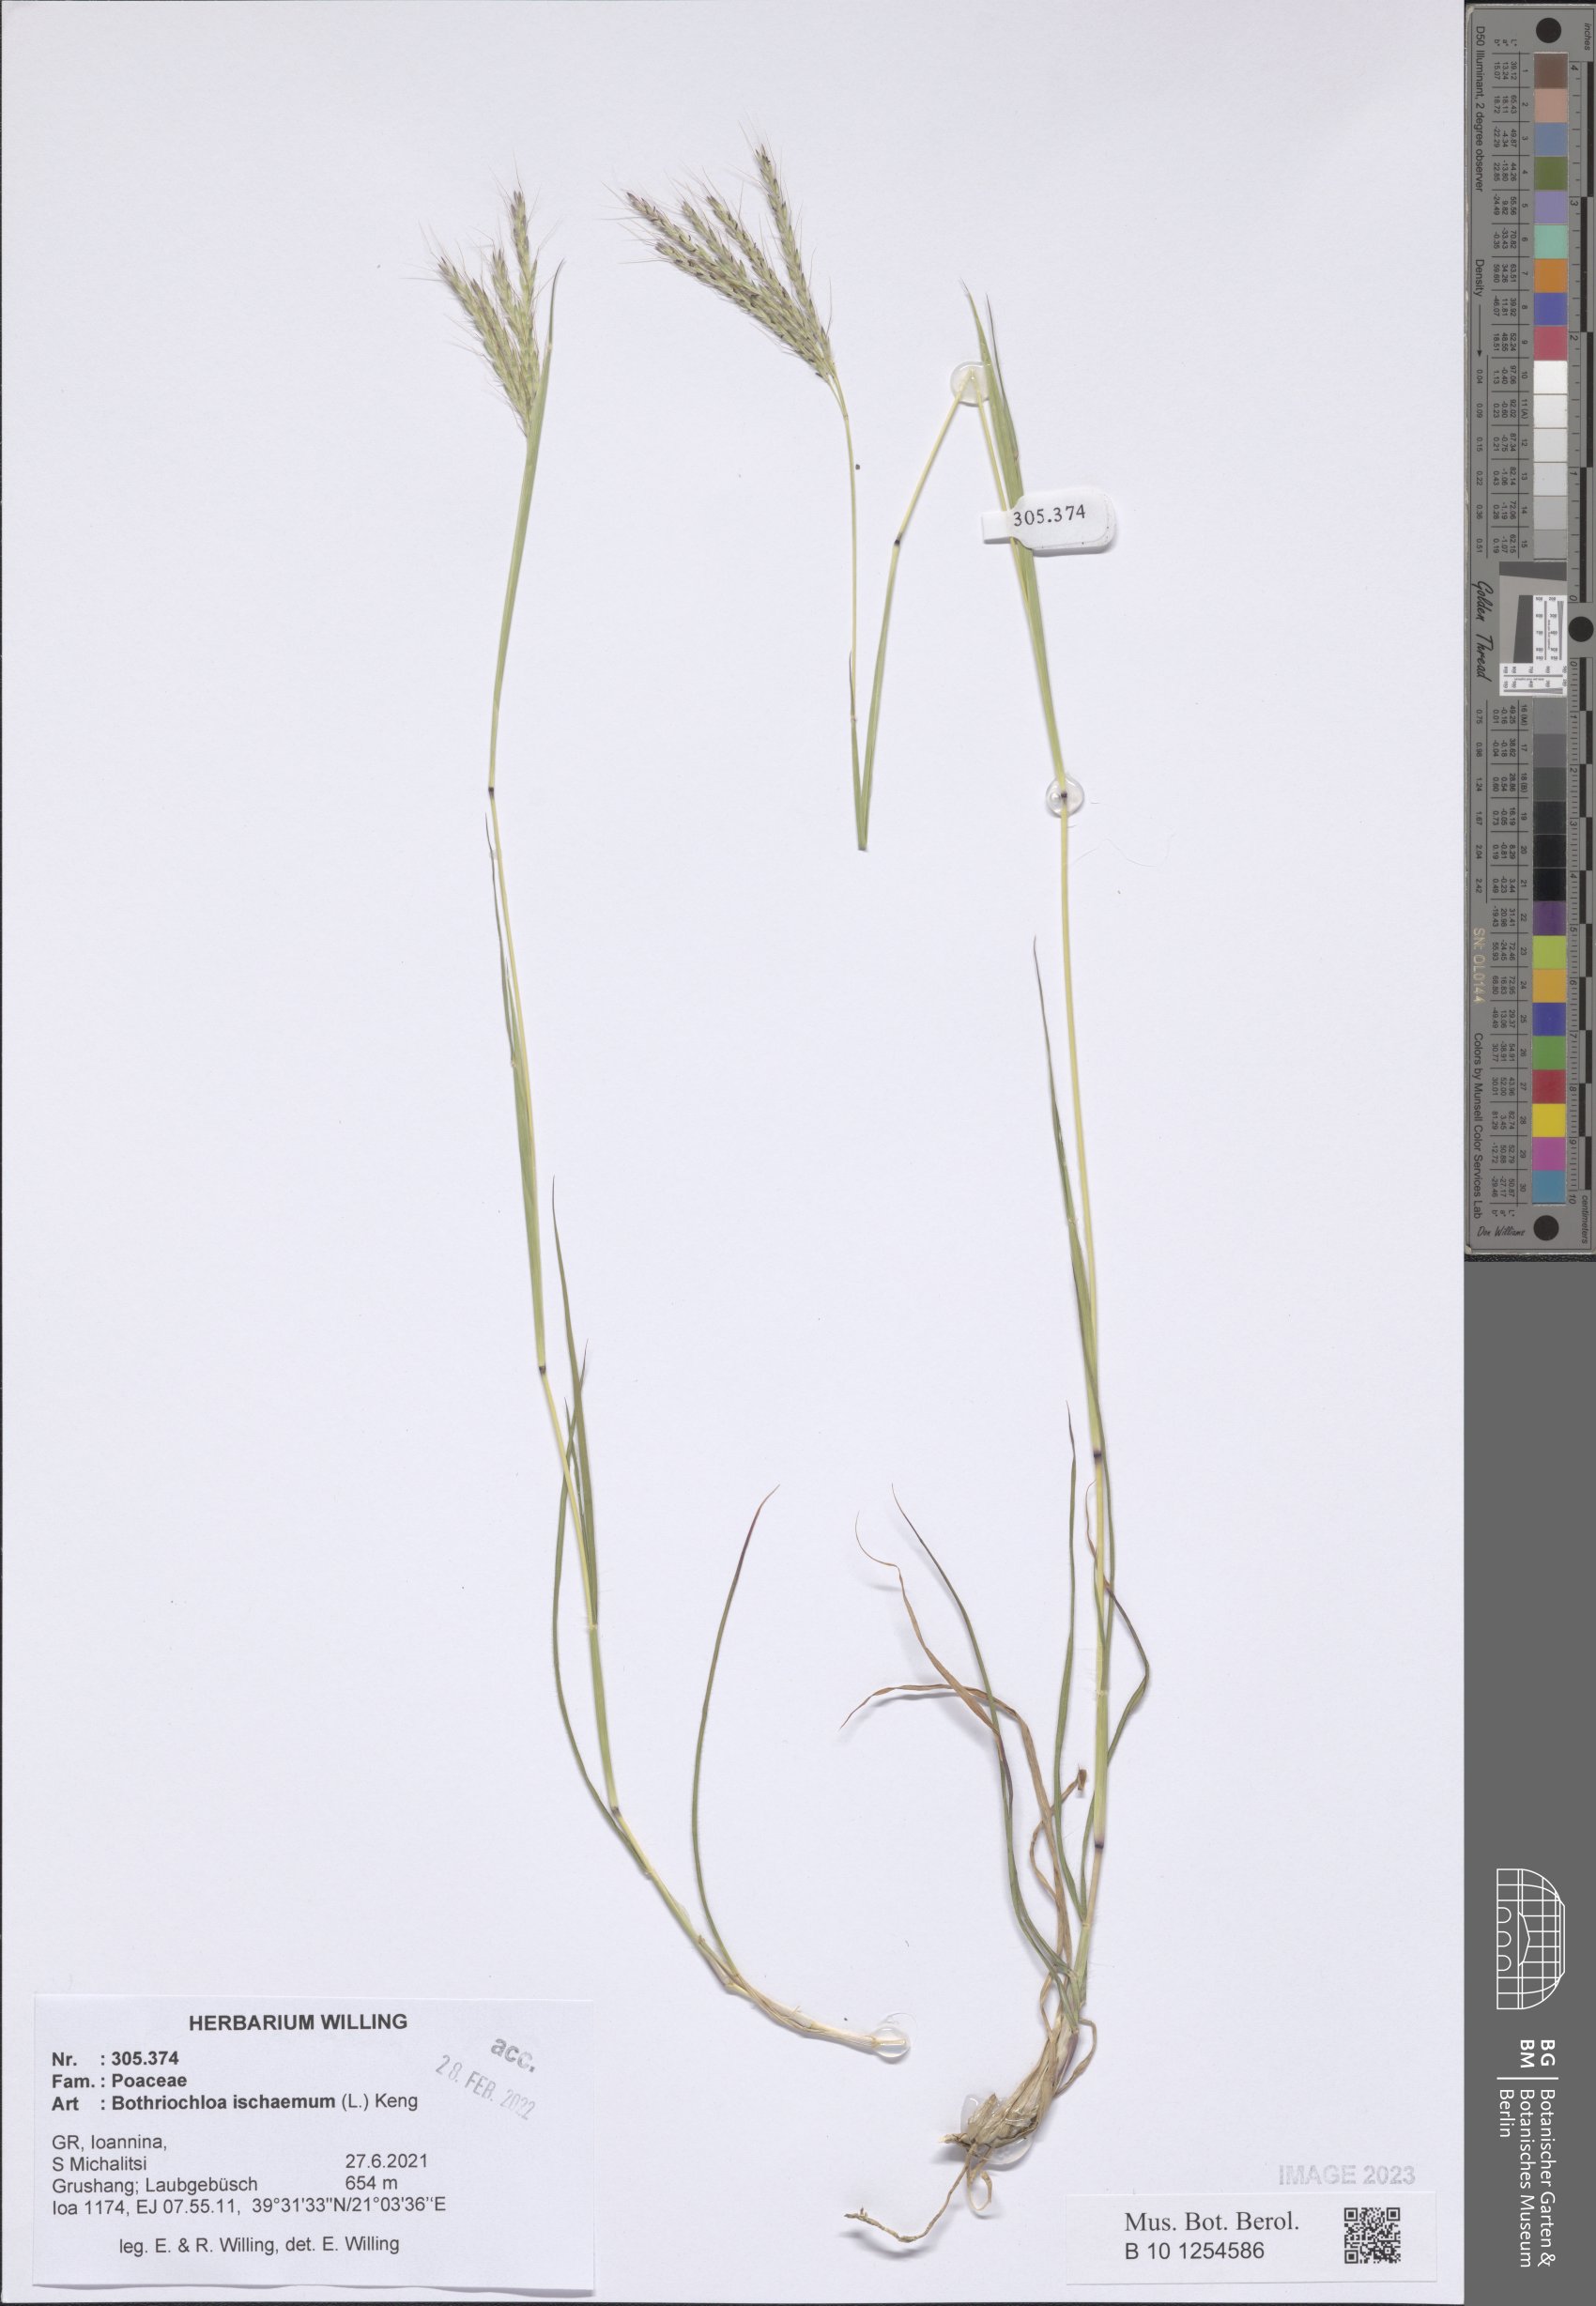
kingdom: Plantae
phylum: Tracheophyta
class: Liliopsida
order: Poales
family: Poaceae
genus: Bothriochloa
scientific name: Bothriochloa ischaemum
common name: Yellow bluestem
